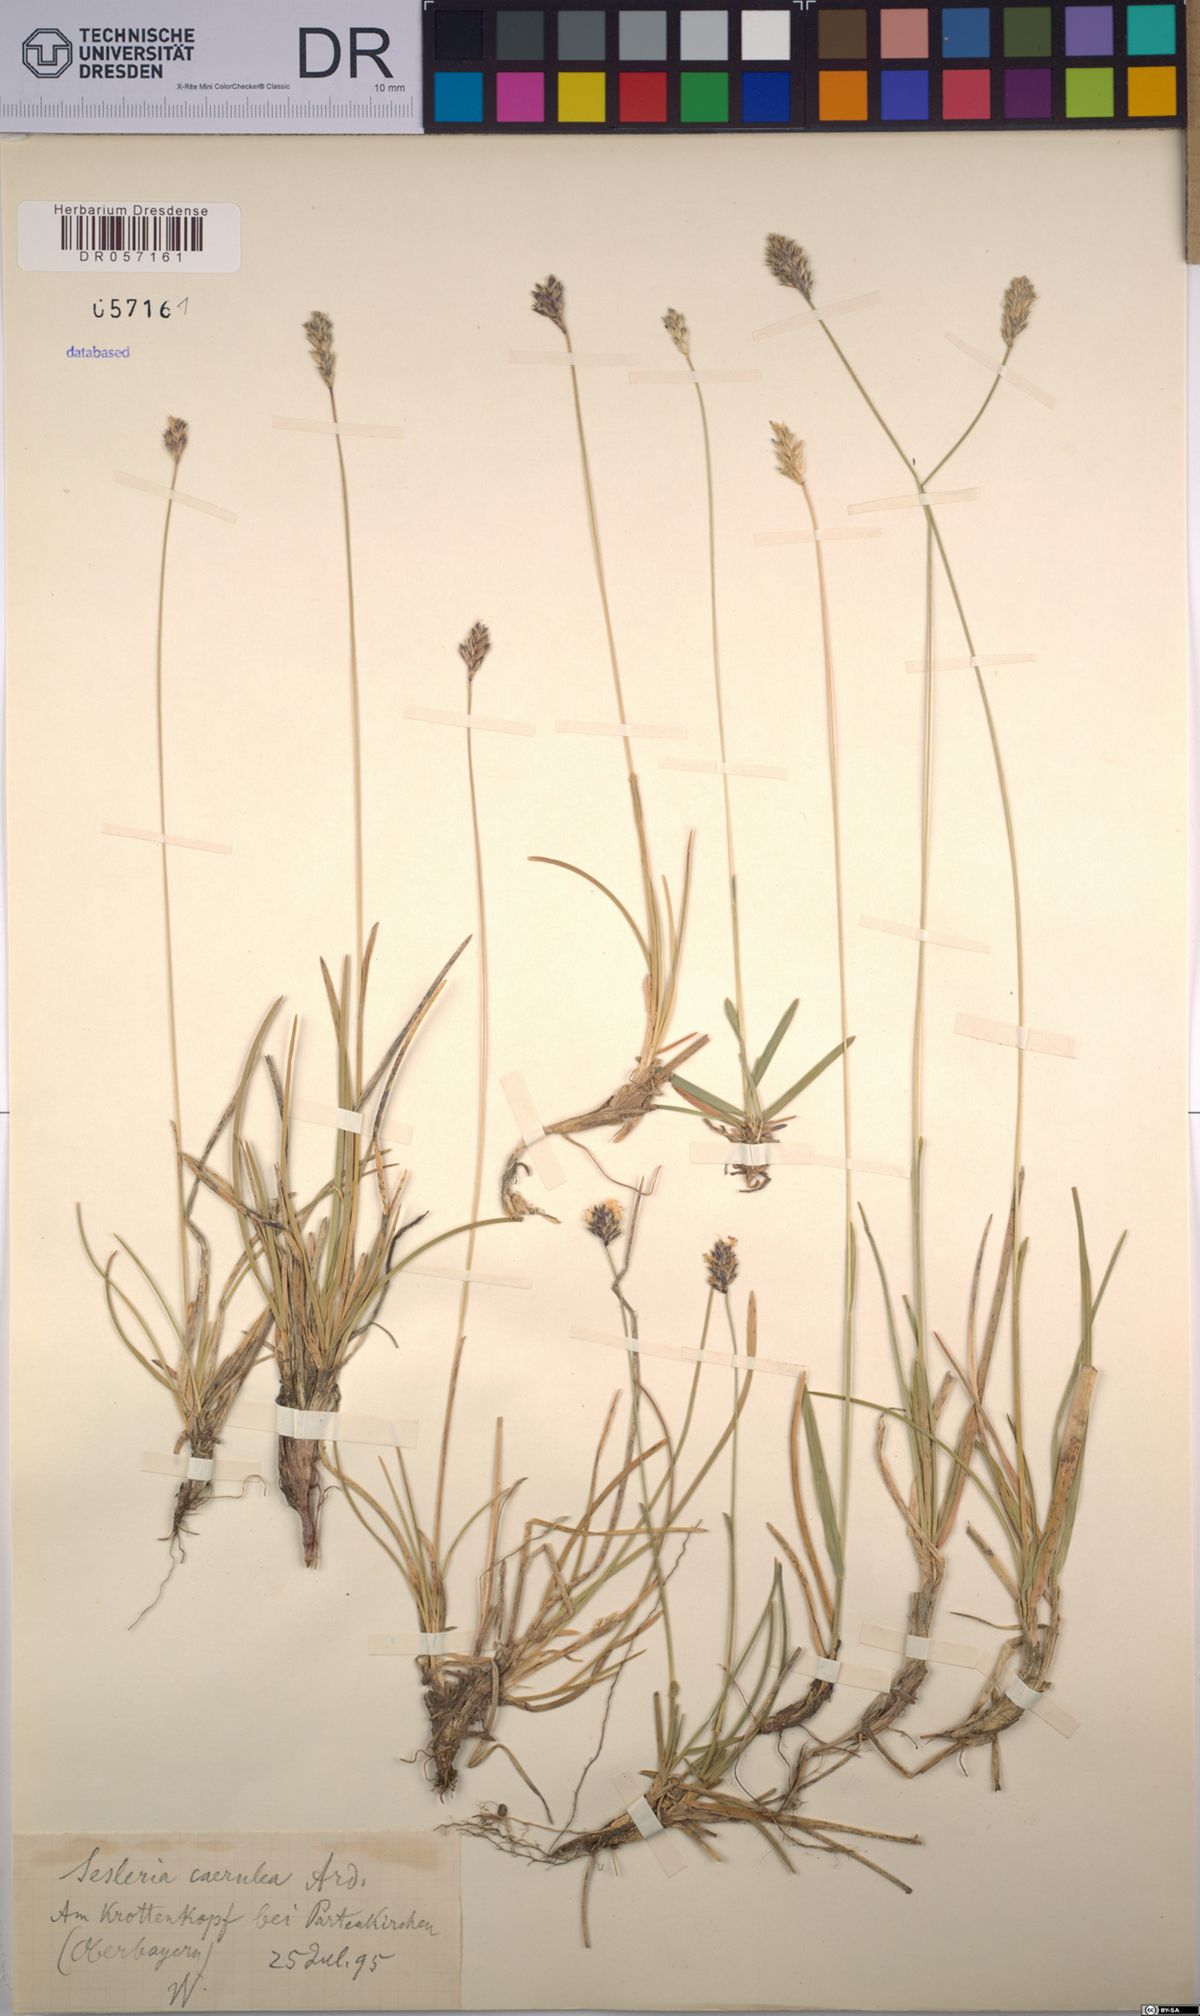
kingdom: Plantae
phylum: Tracheophyta
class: Liliopsida
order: Poales
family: Poaceae
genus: Sesleria
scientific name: Sesleria caerulea
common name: Blue moor-grass
